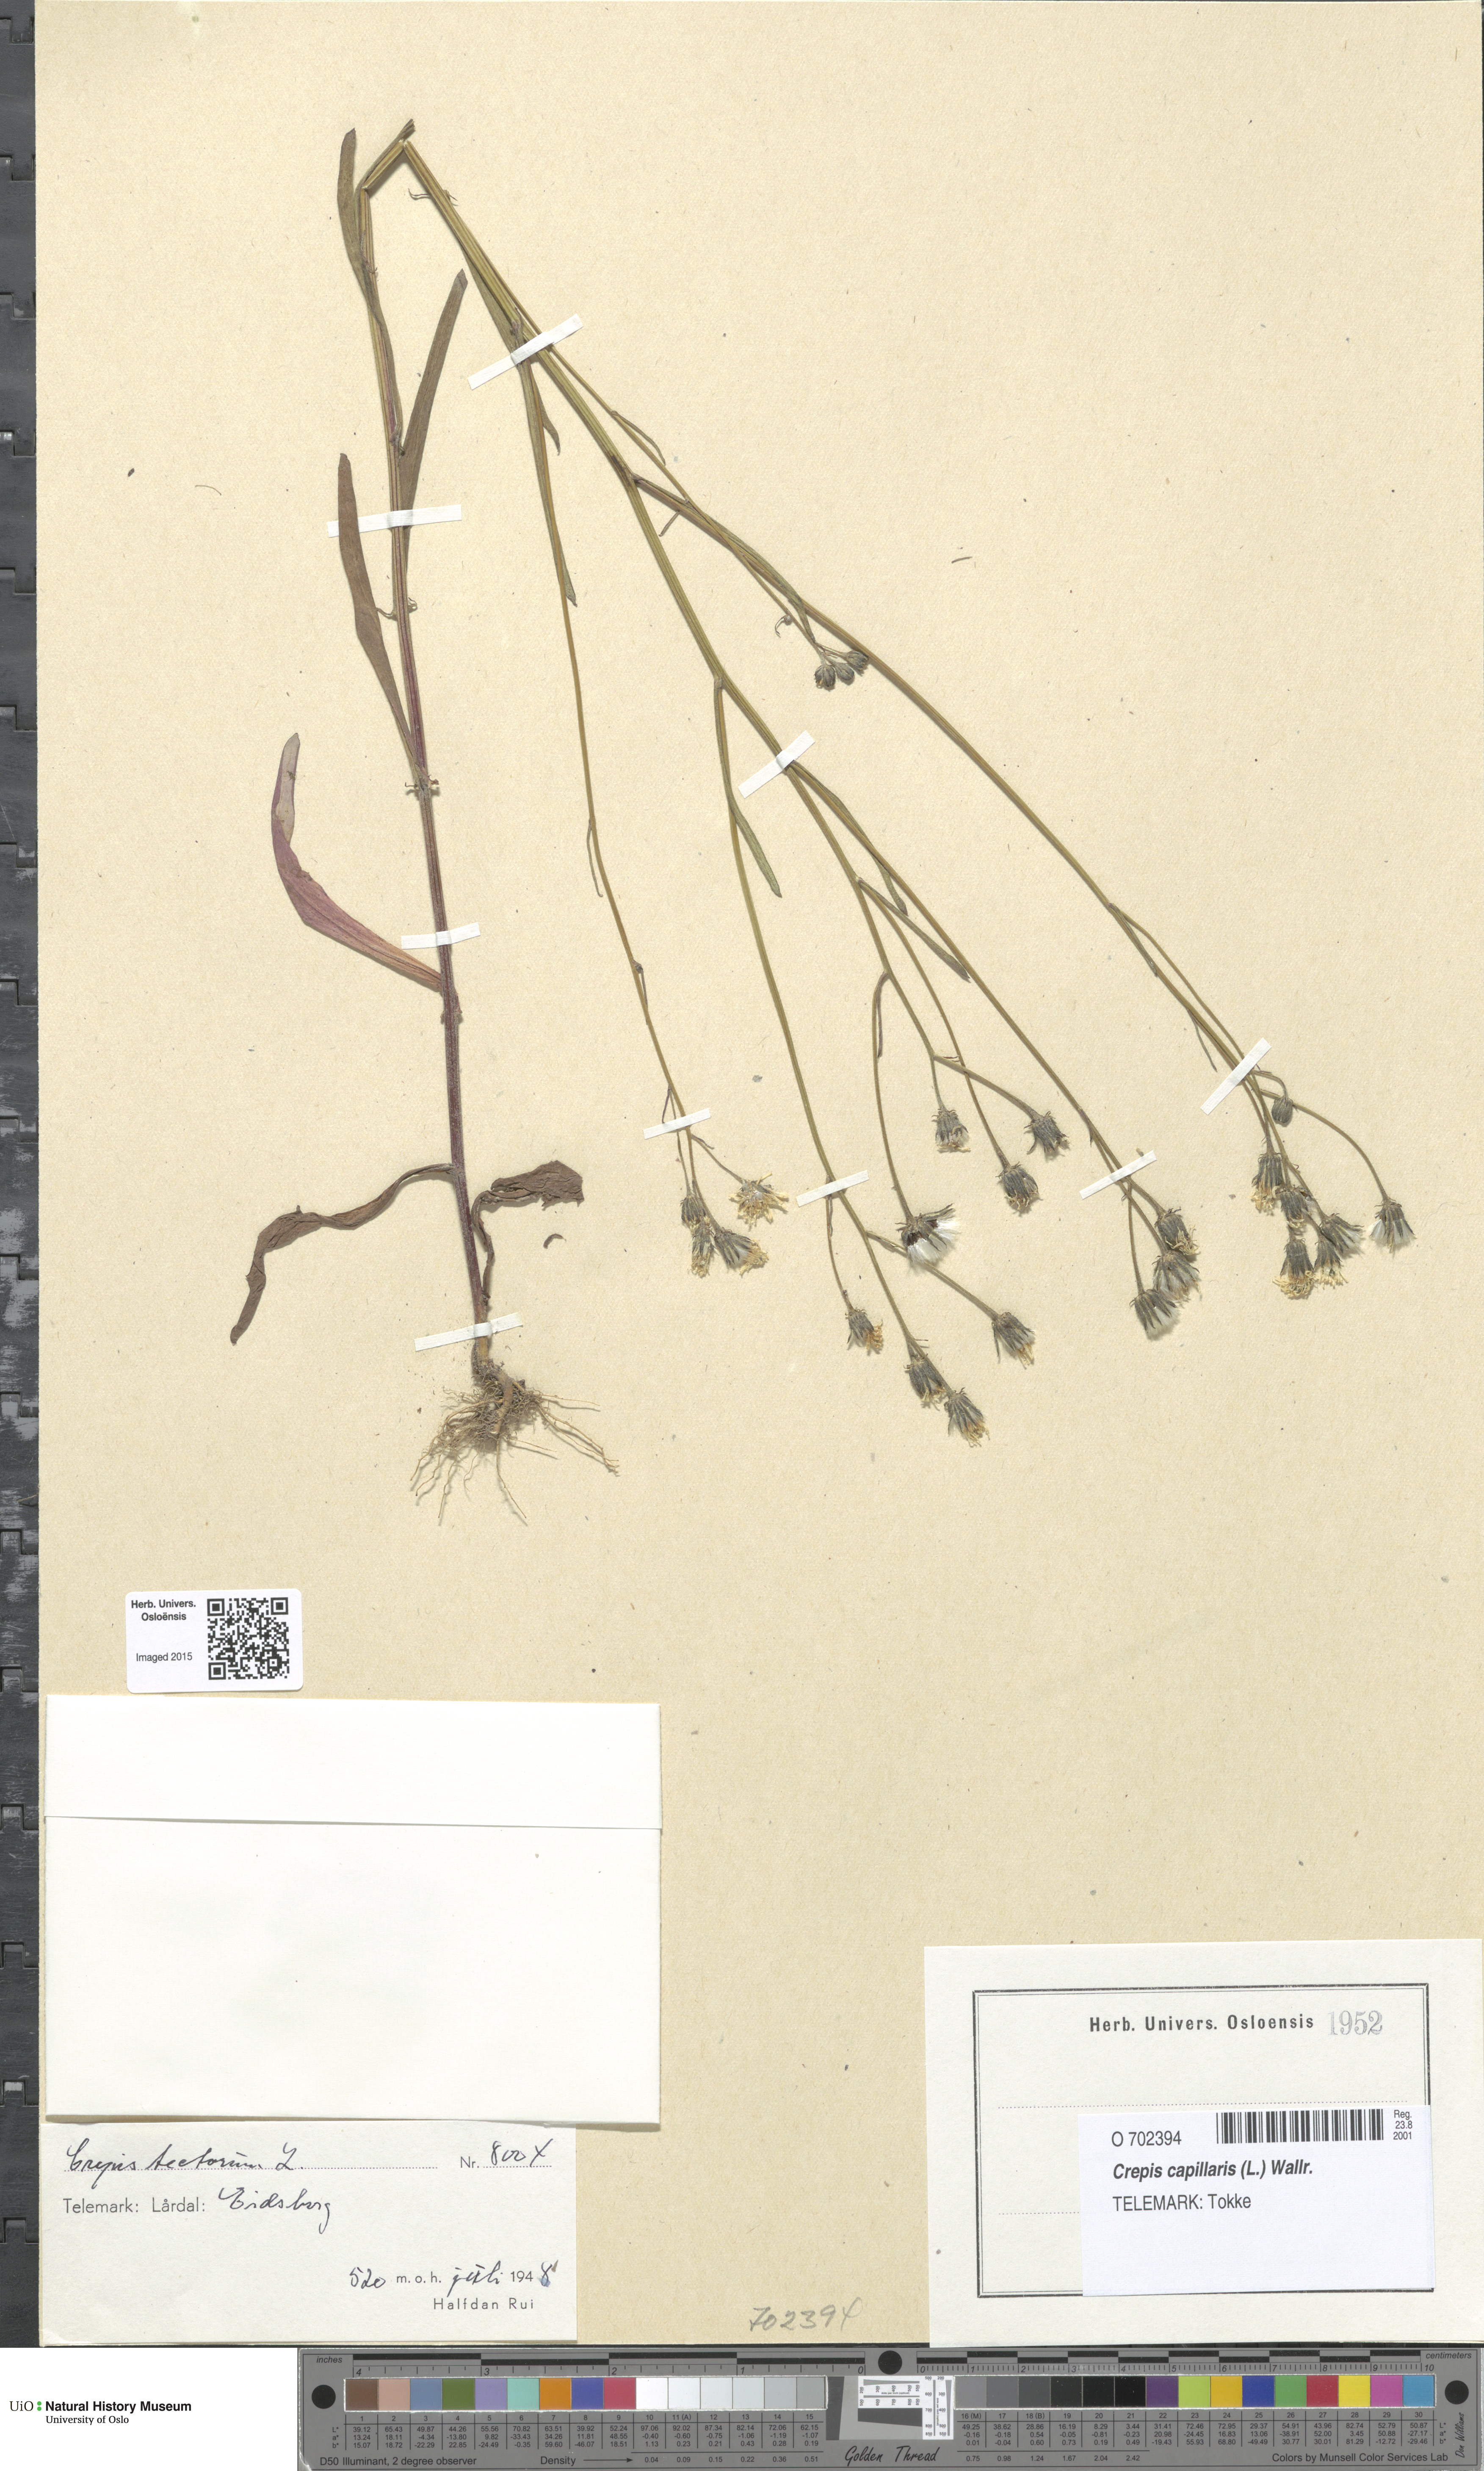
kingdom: Plantae
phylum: Tracheophyta
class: Magnoliopsida
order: Asterales
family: Asteraceae
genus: Crepis
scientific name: Crepis tectorum
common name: Narrow-leaved hawk's-beard
